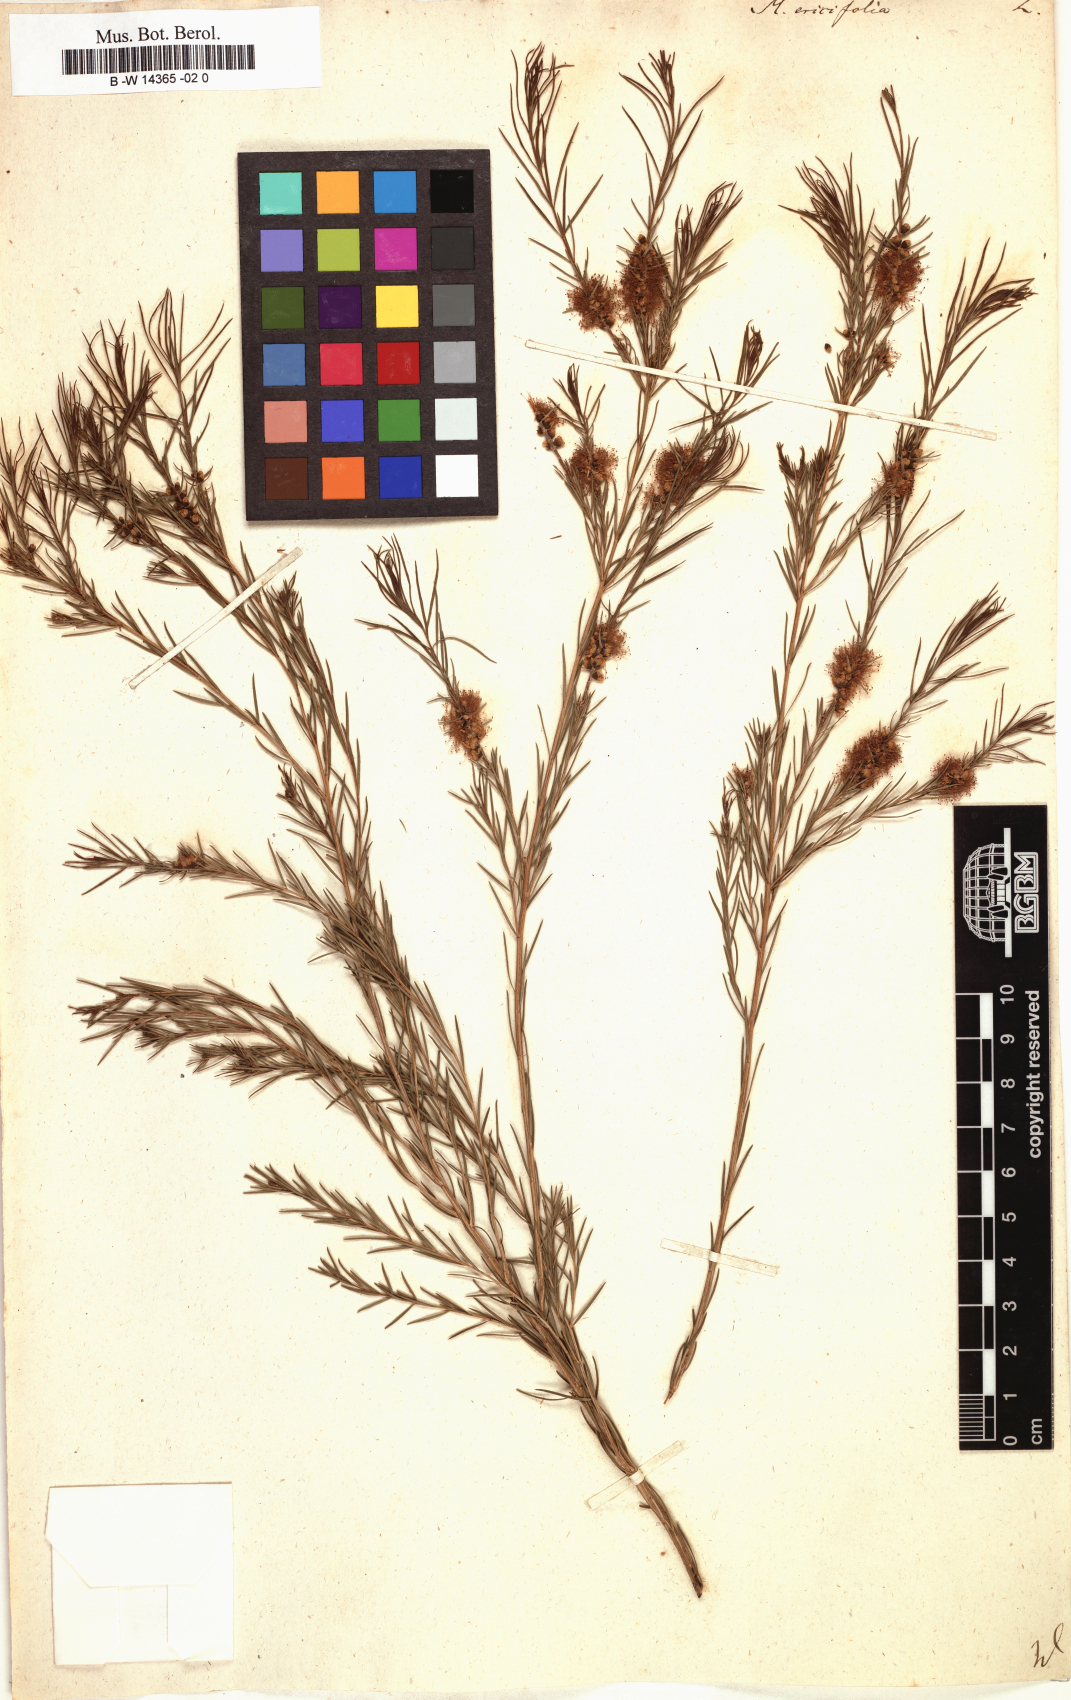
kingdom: Plantae
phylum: Tracheophyta
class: Magnoliopsida
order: Myrtales
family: Myrtaceae
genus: Melaleuca
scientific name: Melaleuca ericifolia
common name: Paperbark teatree
